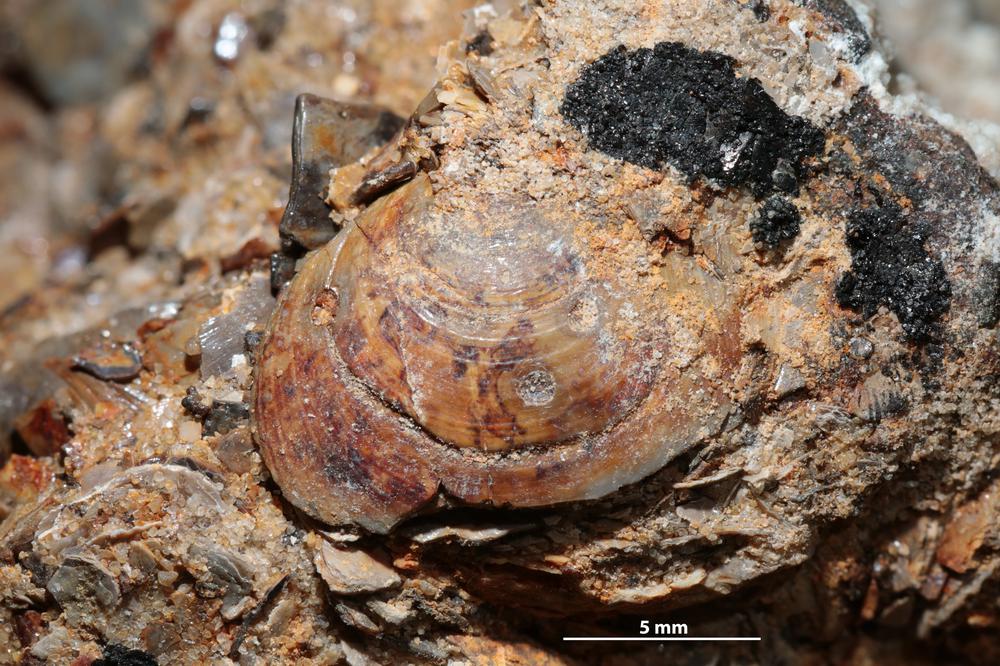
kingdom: Animalia
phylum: Brachiopoda
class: Lingulata
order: Lingulida
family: Obolidae
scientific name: Obolidae
